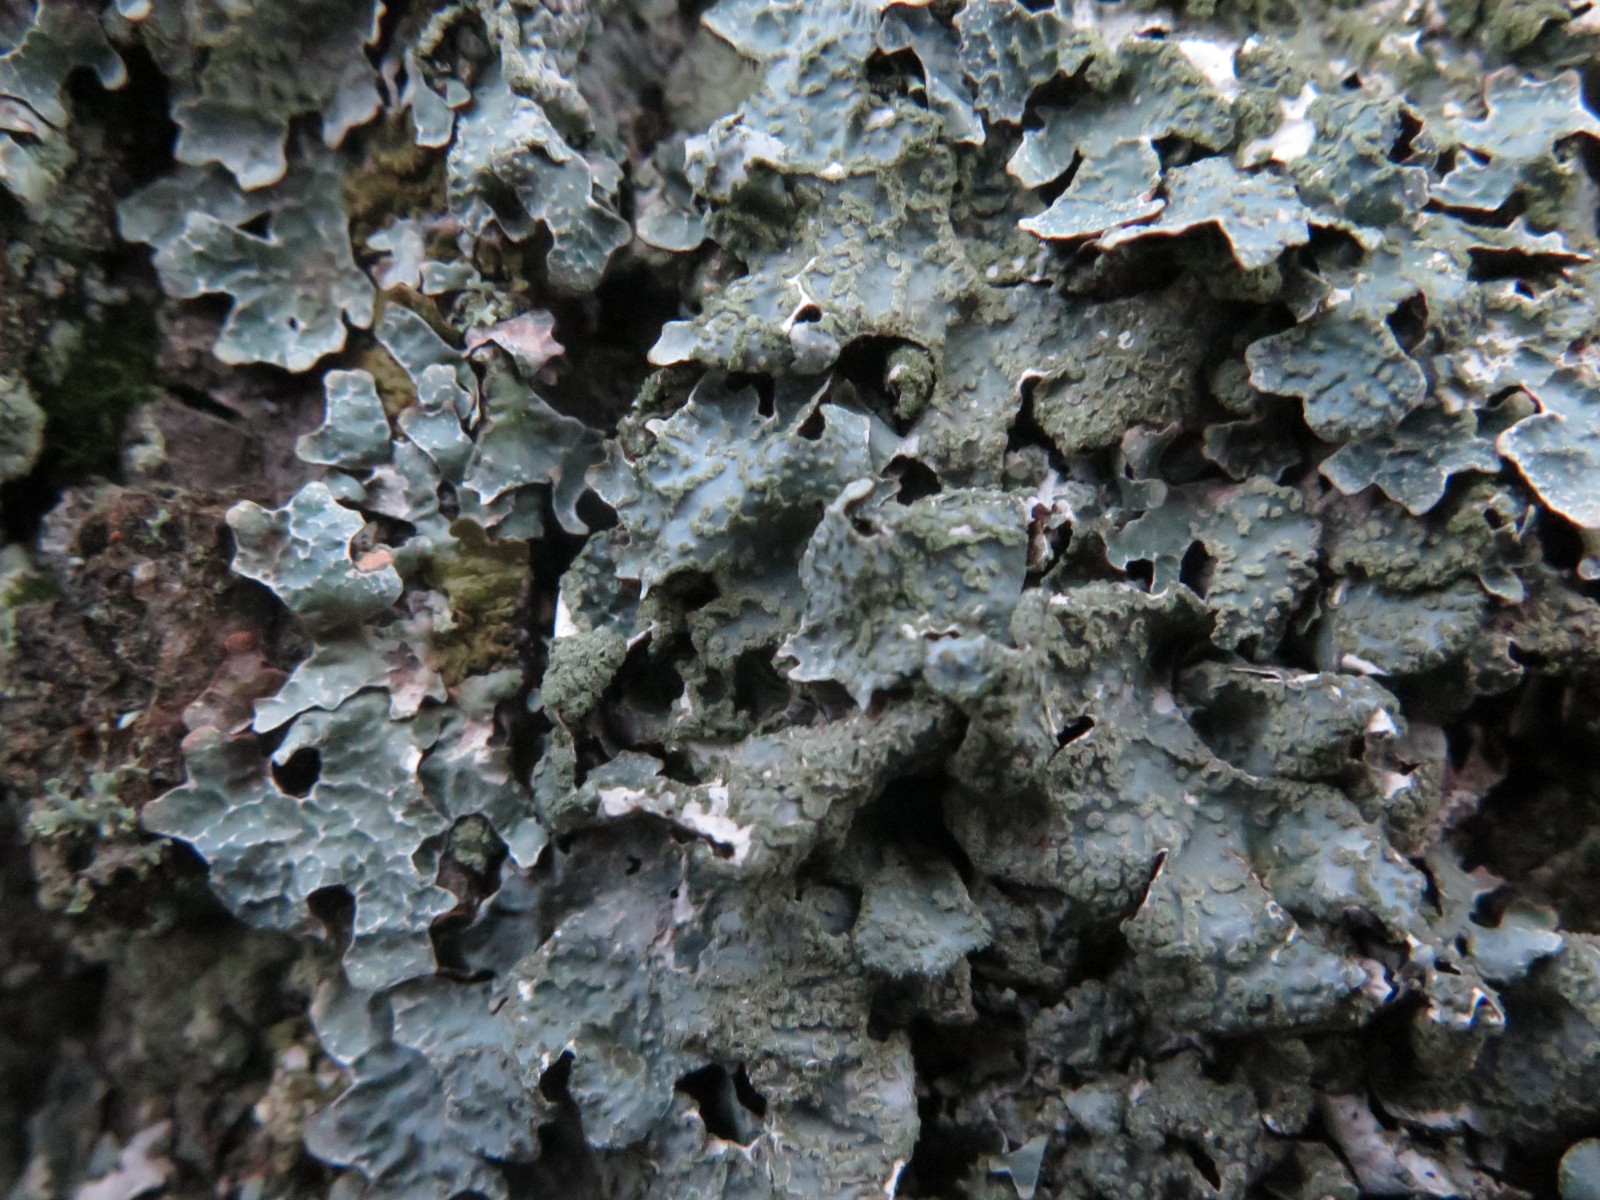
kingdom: Fungi
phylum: Ascomycota
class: Lecanoromycetes
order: Lecanorales
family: Parmeliaceae
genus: Parmelia
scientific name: Parmelia sulcata
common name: rynket skållav
